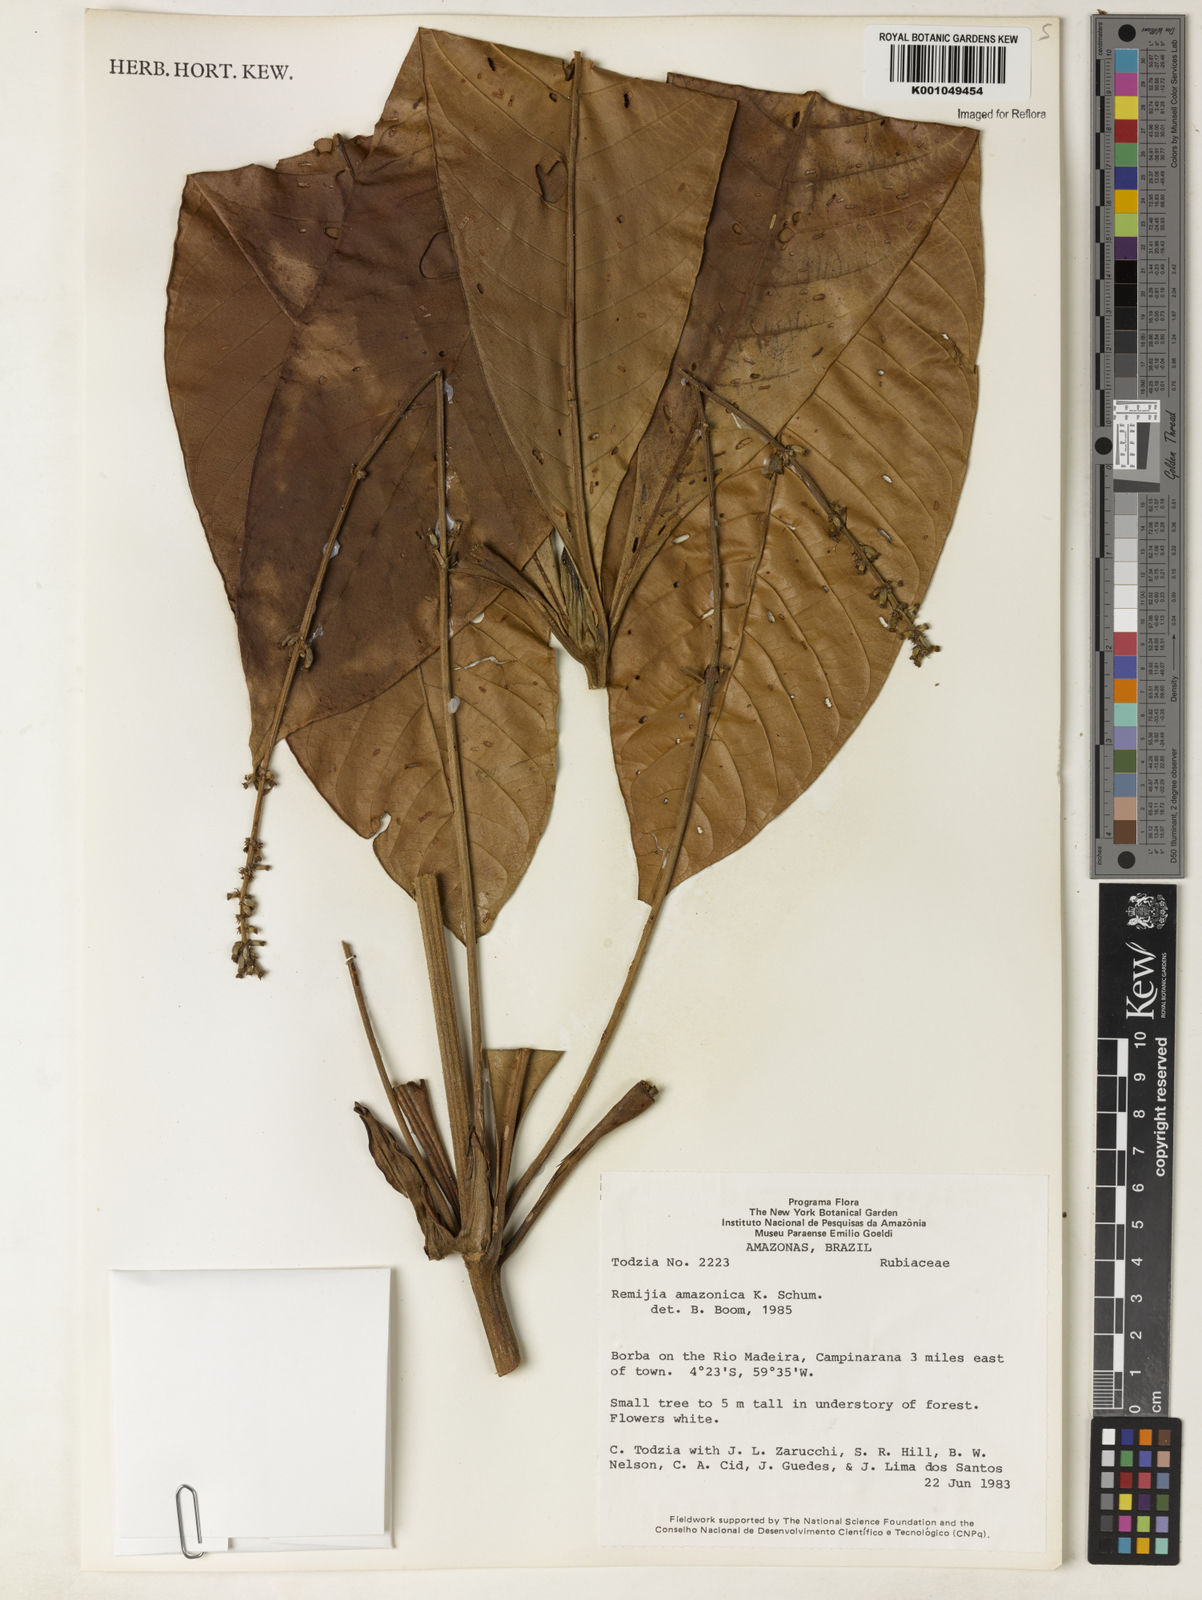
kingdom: Plantae
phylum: Tracheophyta
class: Magnoliopsida
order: Gentianales
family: Rubiaceae
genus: Remijia
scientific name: Remijia amazonica
